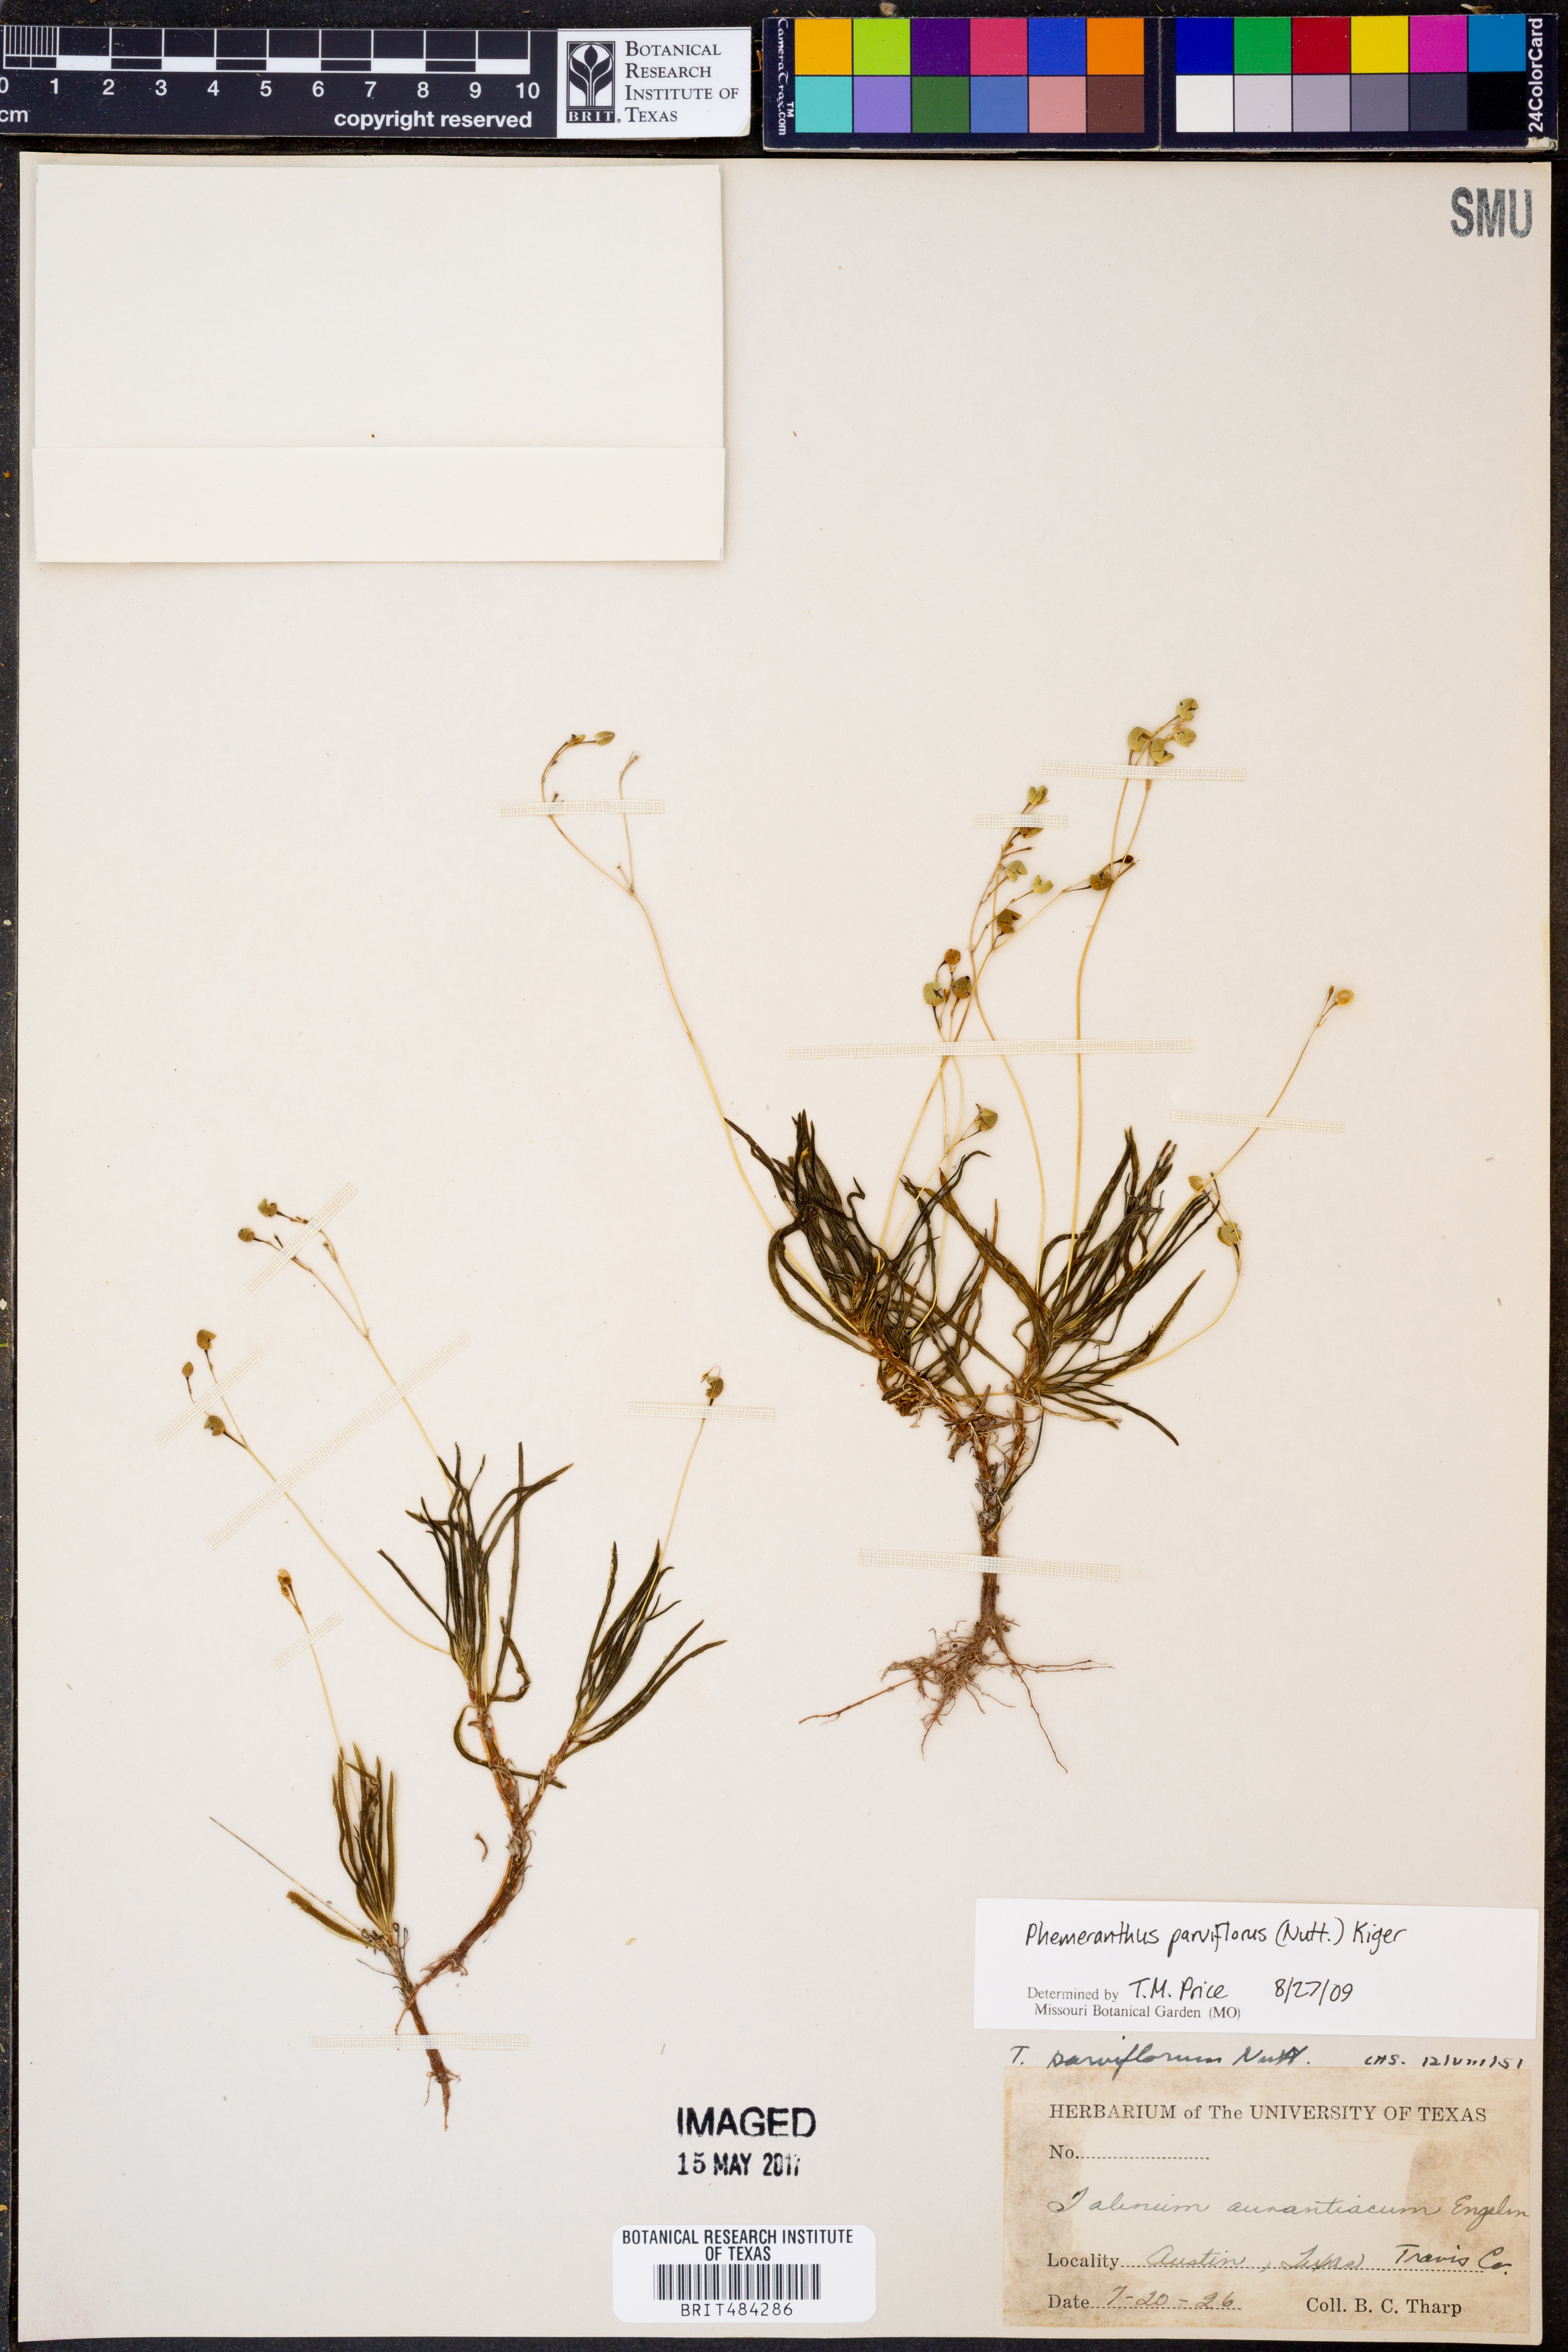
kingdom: Plantae
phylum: Tracheophyta
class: Magnoliopsida
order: Caryophyllales
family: Montiaceae
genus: Phemeranthus
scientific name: Phemeranthus parviflorus
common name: Sunbright
